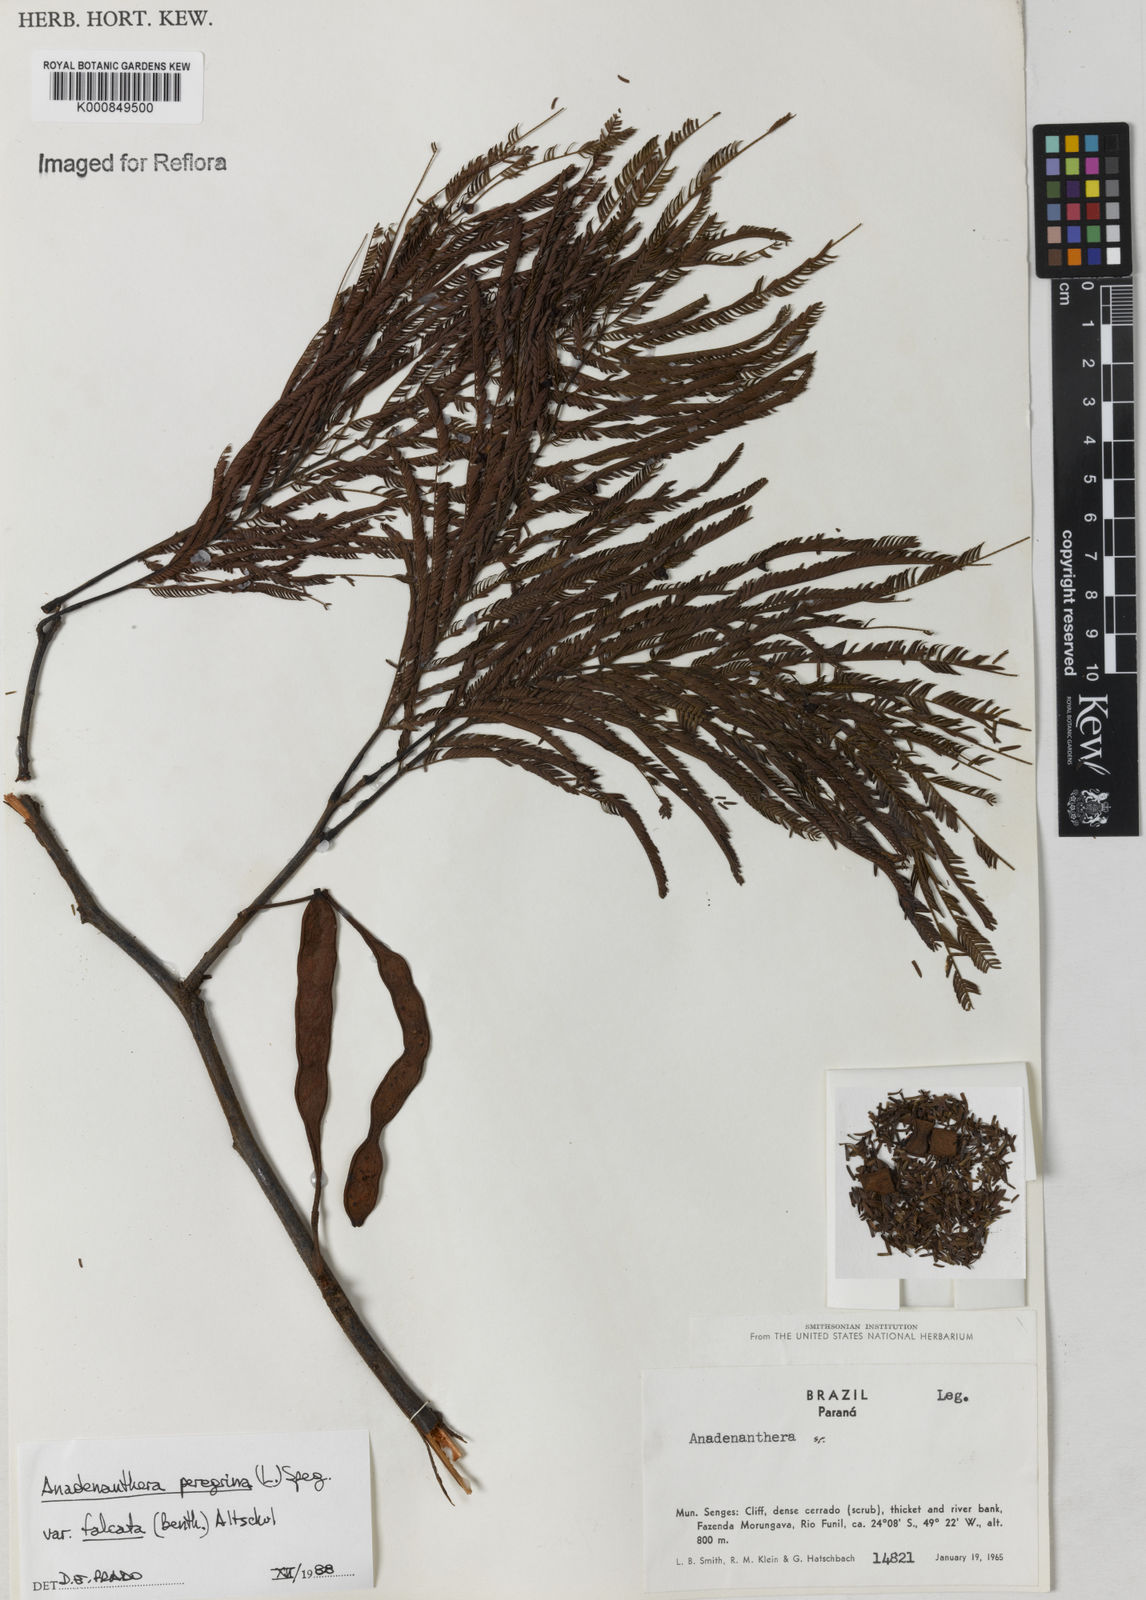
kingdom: Plantae
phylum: Tracheophyta
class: Magnoliopsida
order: Fabales
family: Fabaceae
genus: Anadenanthera
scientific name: Anadenanthera peregrina
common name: Cohoba
